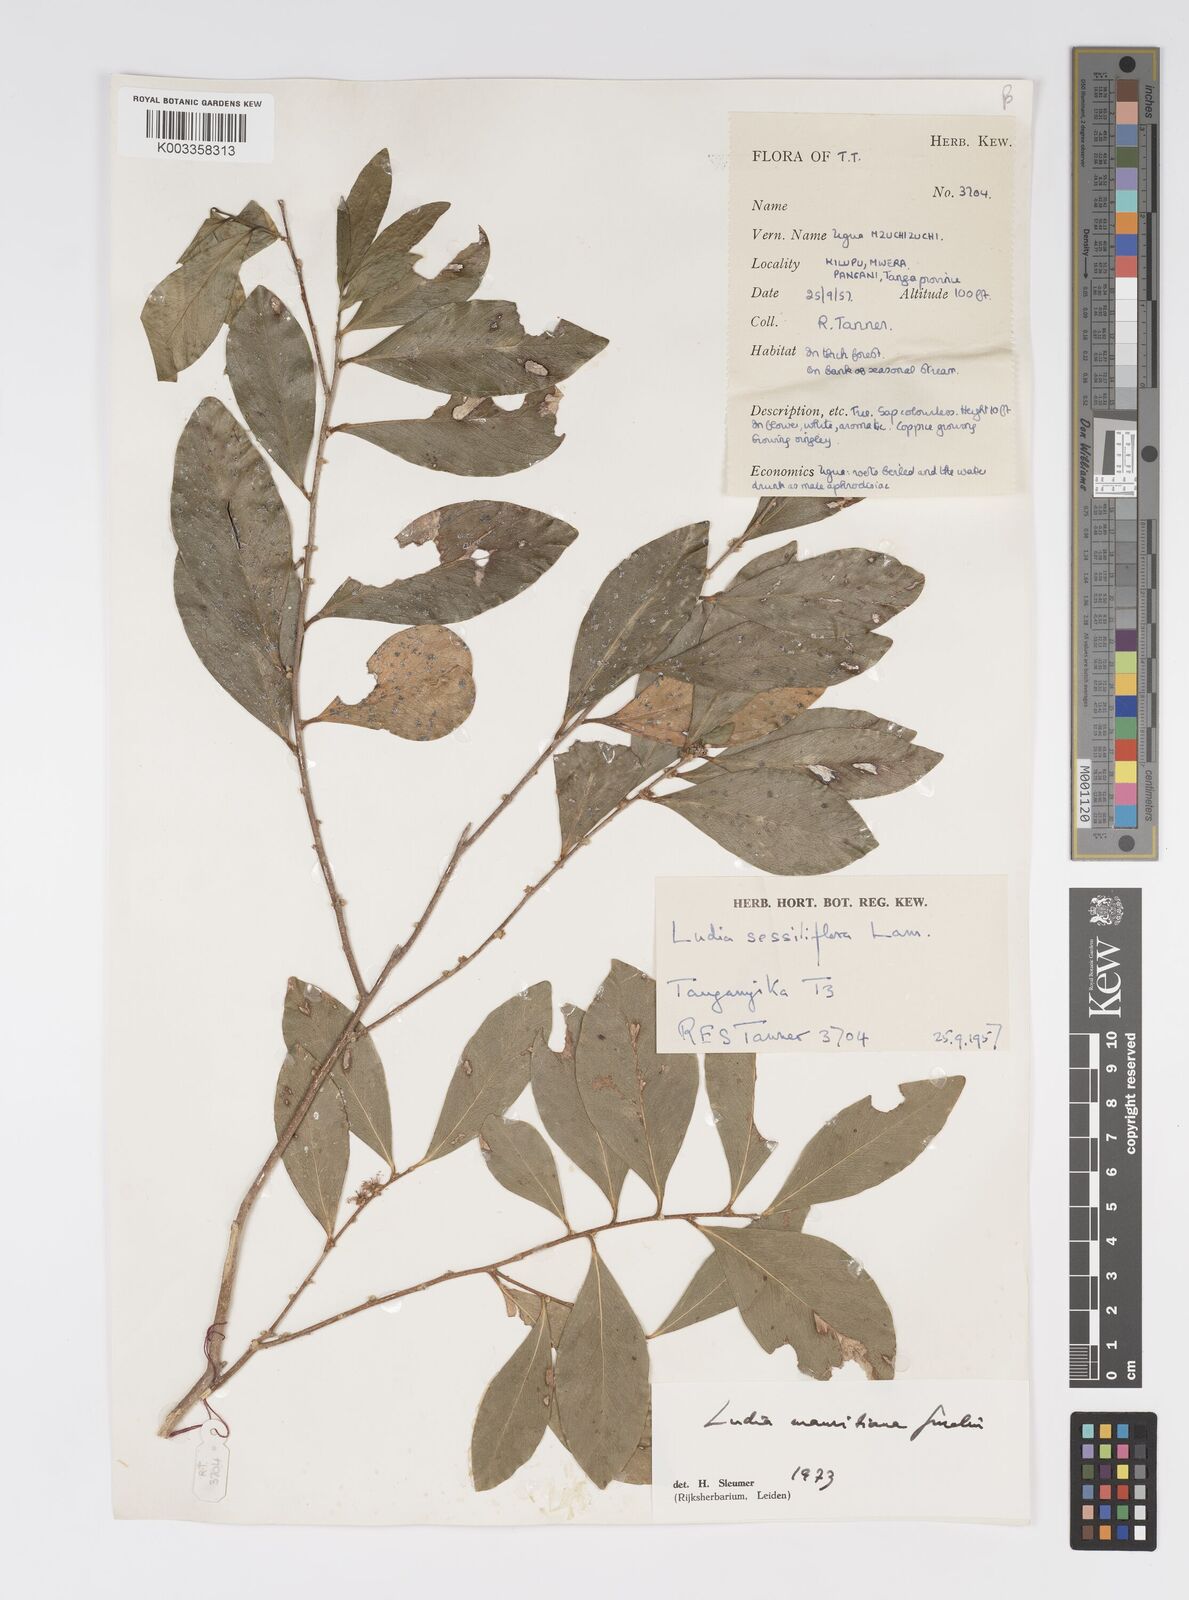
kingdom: Plantae
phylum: Tracheophyta
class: Magnoliopsida
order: Malpighiales
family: Salicaceae
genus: Ludia
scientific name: Ludia mauritiana
